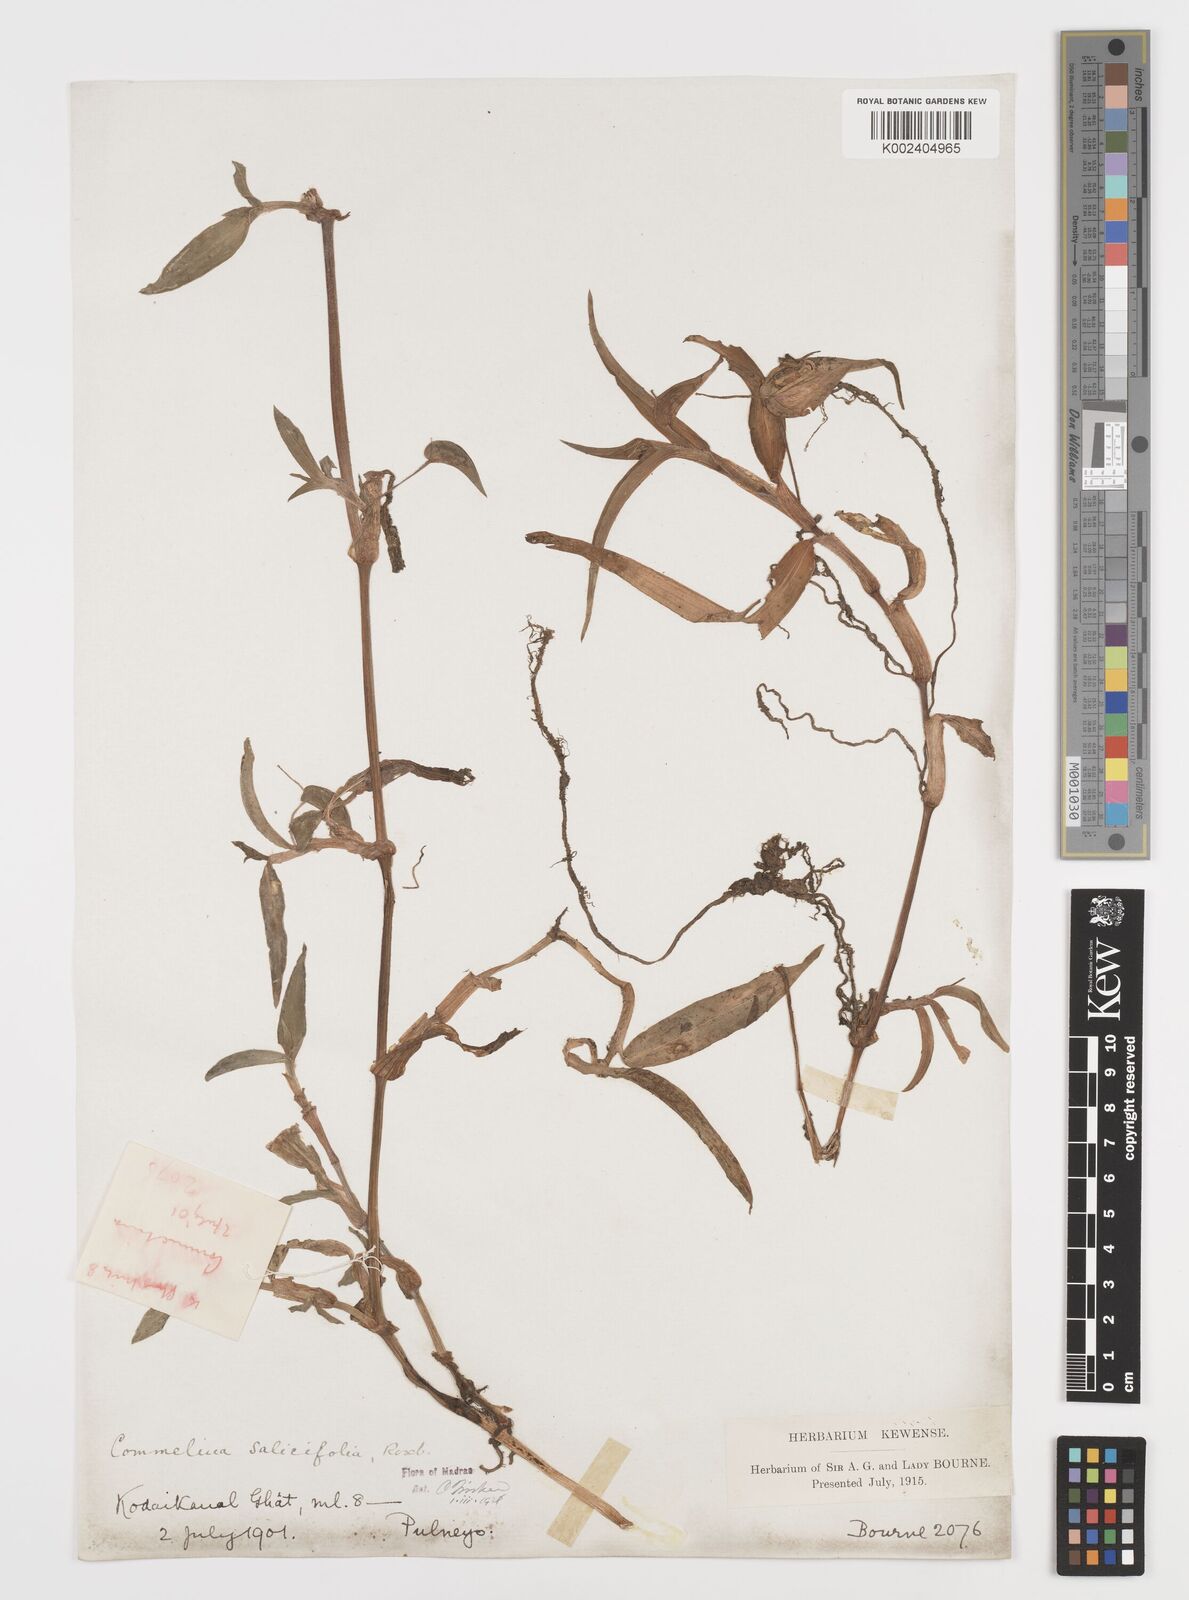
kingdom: Plantae
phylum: Tracheophyta
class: Liliopsida
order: Commelinales
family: Commelinaceae
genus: Commelina
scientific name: Commelina undulata
